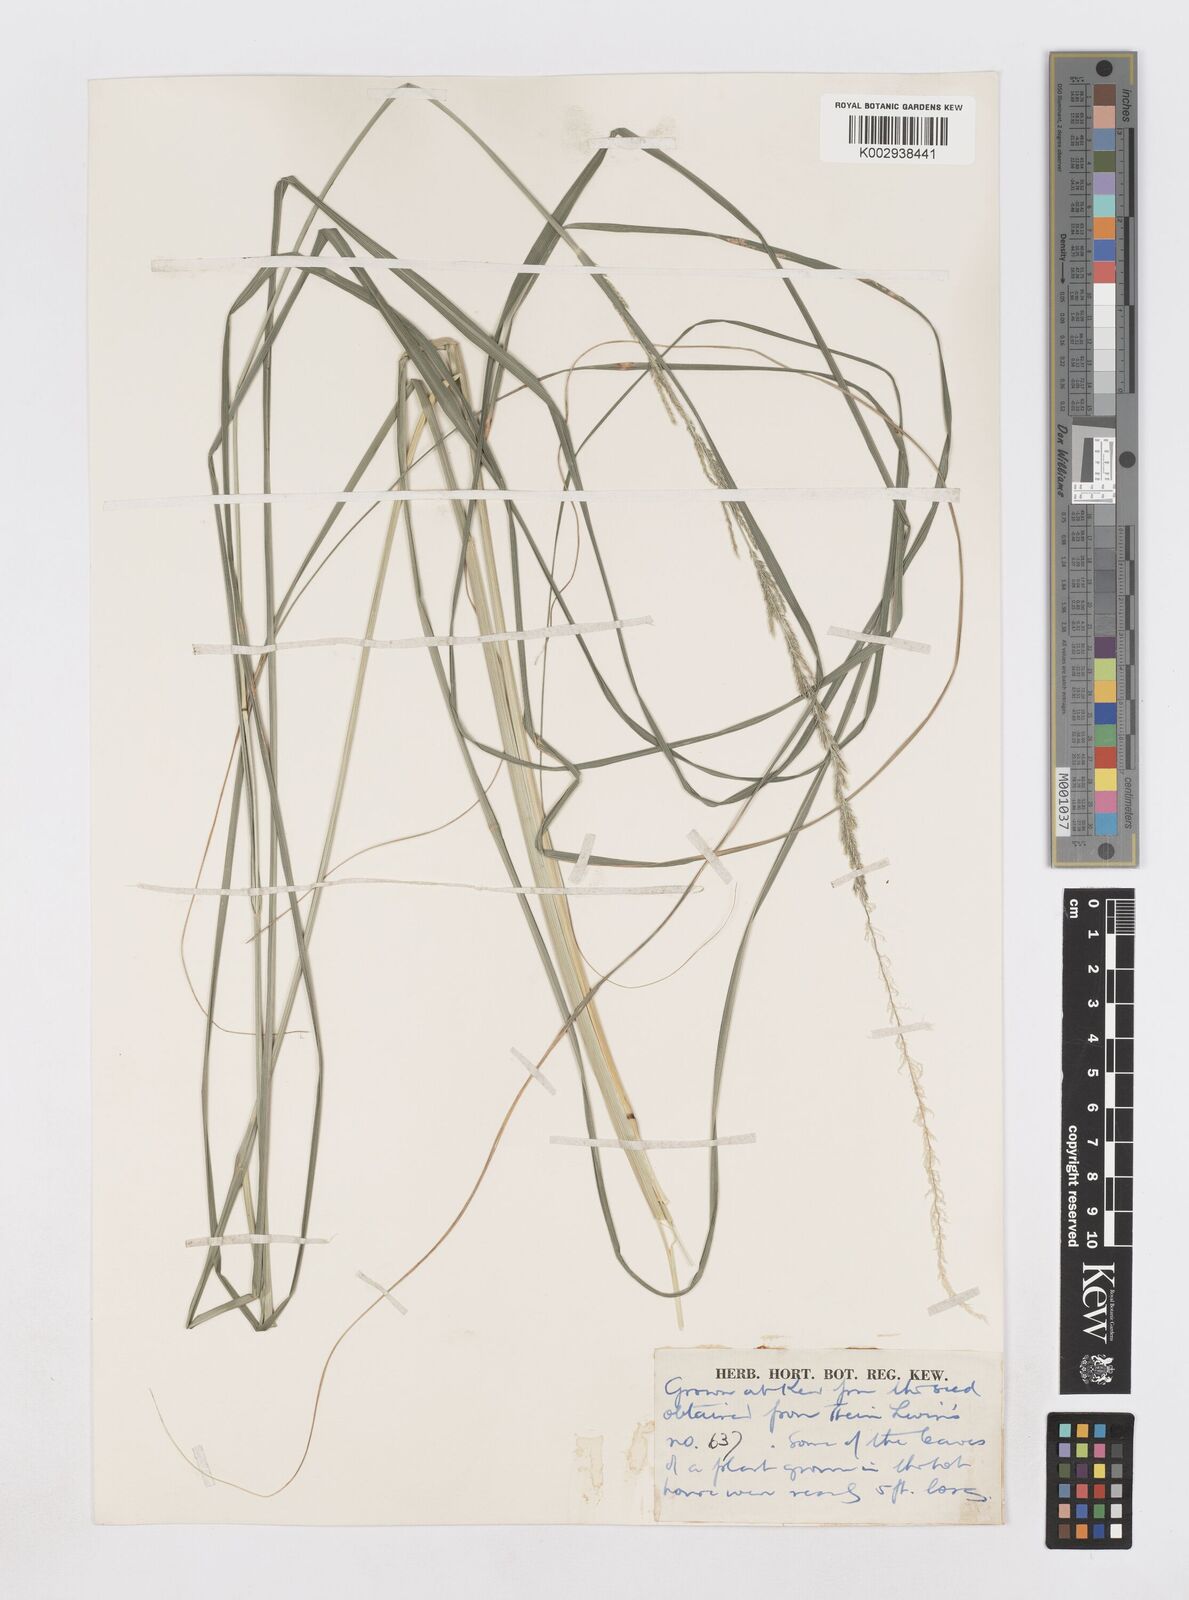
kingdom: Plantae
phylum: Tracheophyta
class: Liliopsida
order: Poales
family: Poaceae
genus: Sporobolus
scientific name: Sporobolus fertilis
